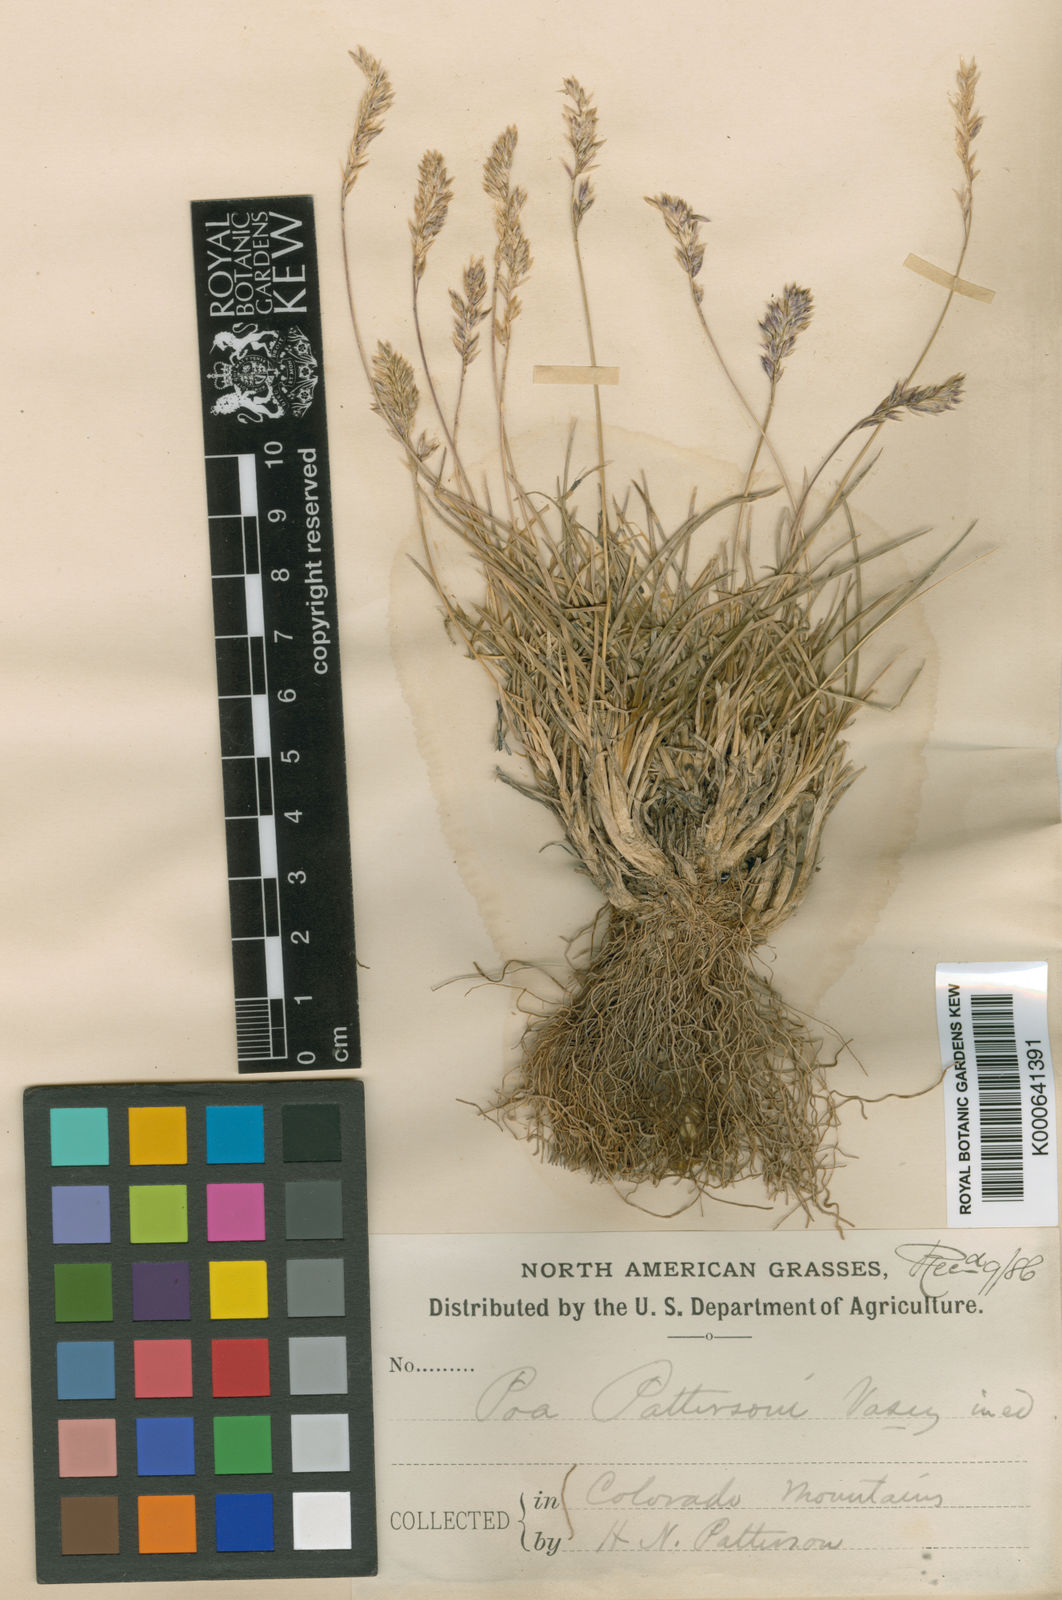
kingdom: Plantae
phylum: Tracheophyta
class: Liliopsida
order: Poales
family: Poaceae
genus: Poa
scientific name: Poa pattersonii
